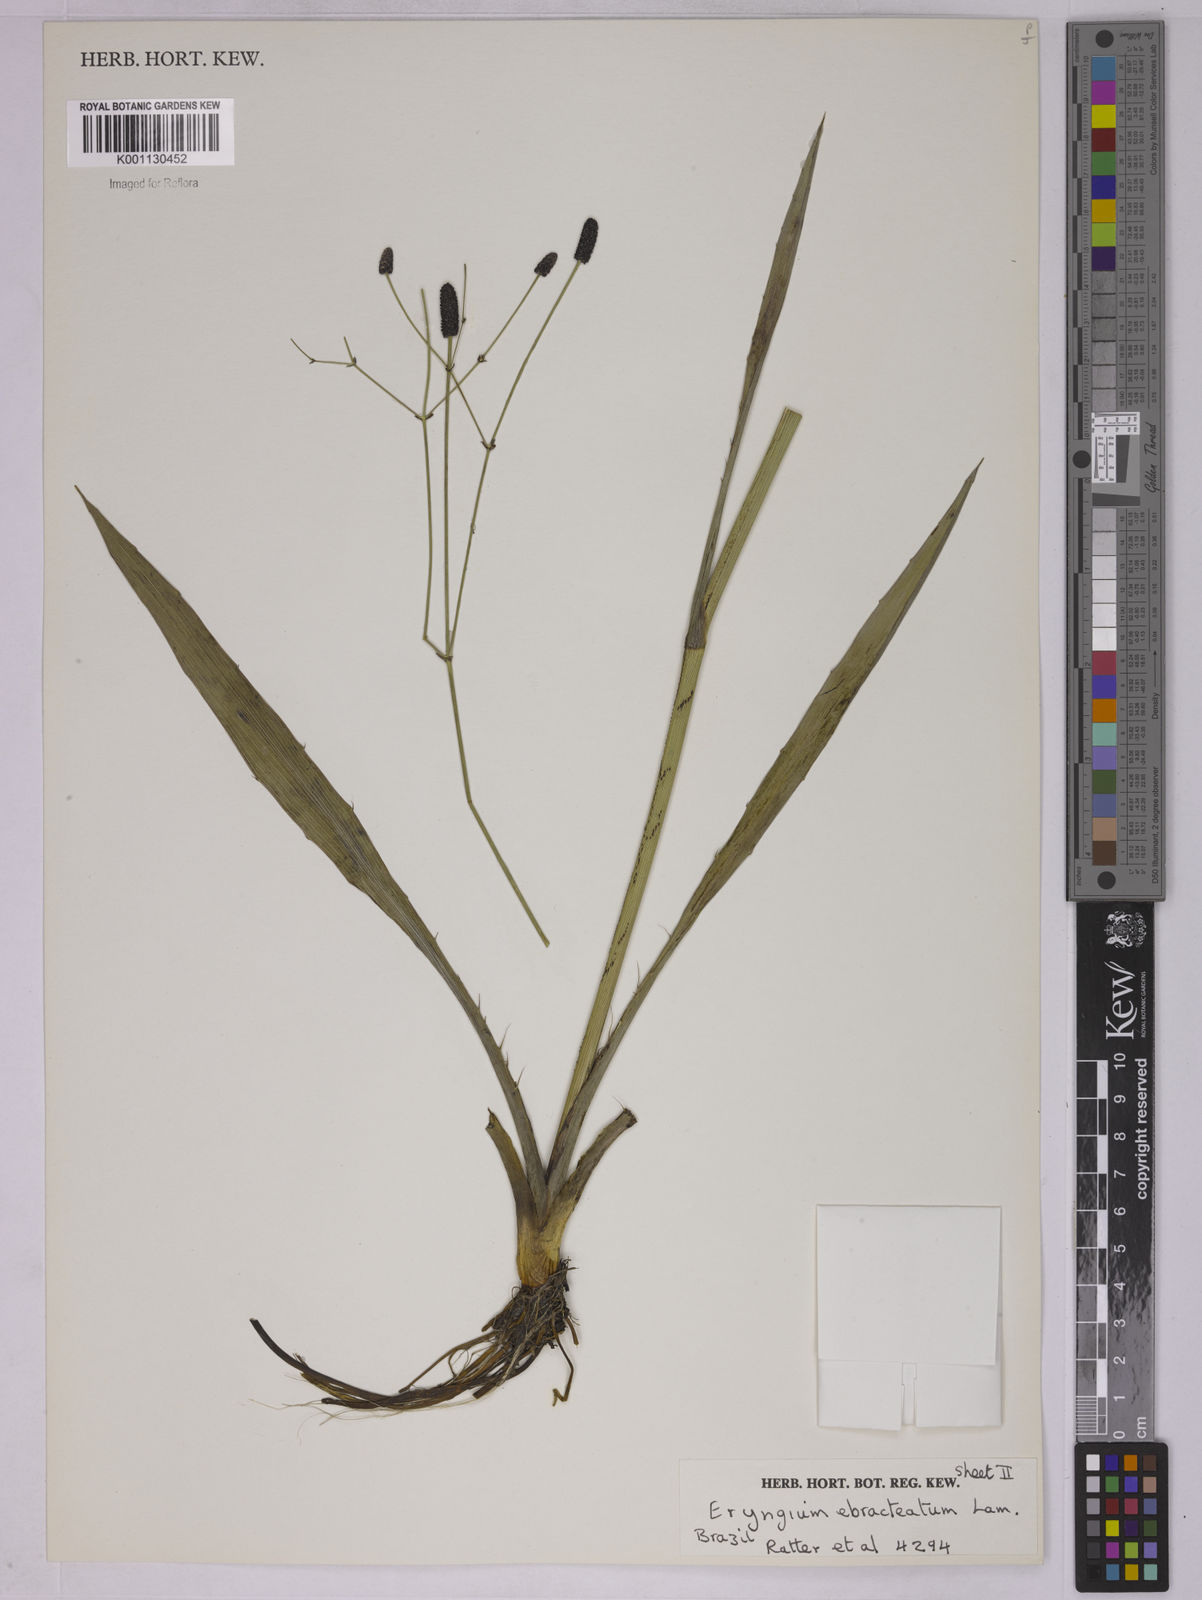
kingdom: Plantae
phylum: Tracheophyta
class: Magnoliopsida
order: Apiales
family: Apiaceae
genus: Eryngium
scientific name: Eryngium ebracteatum
